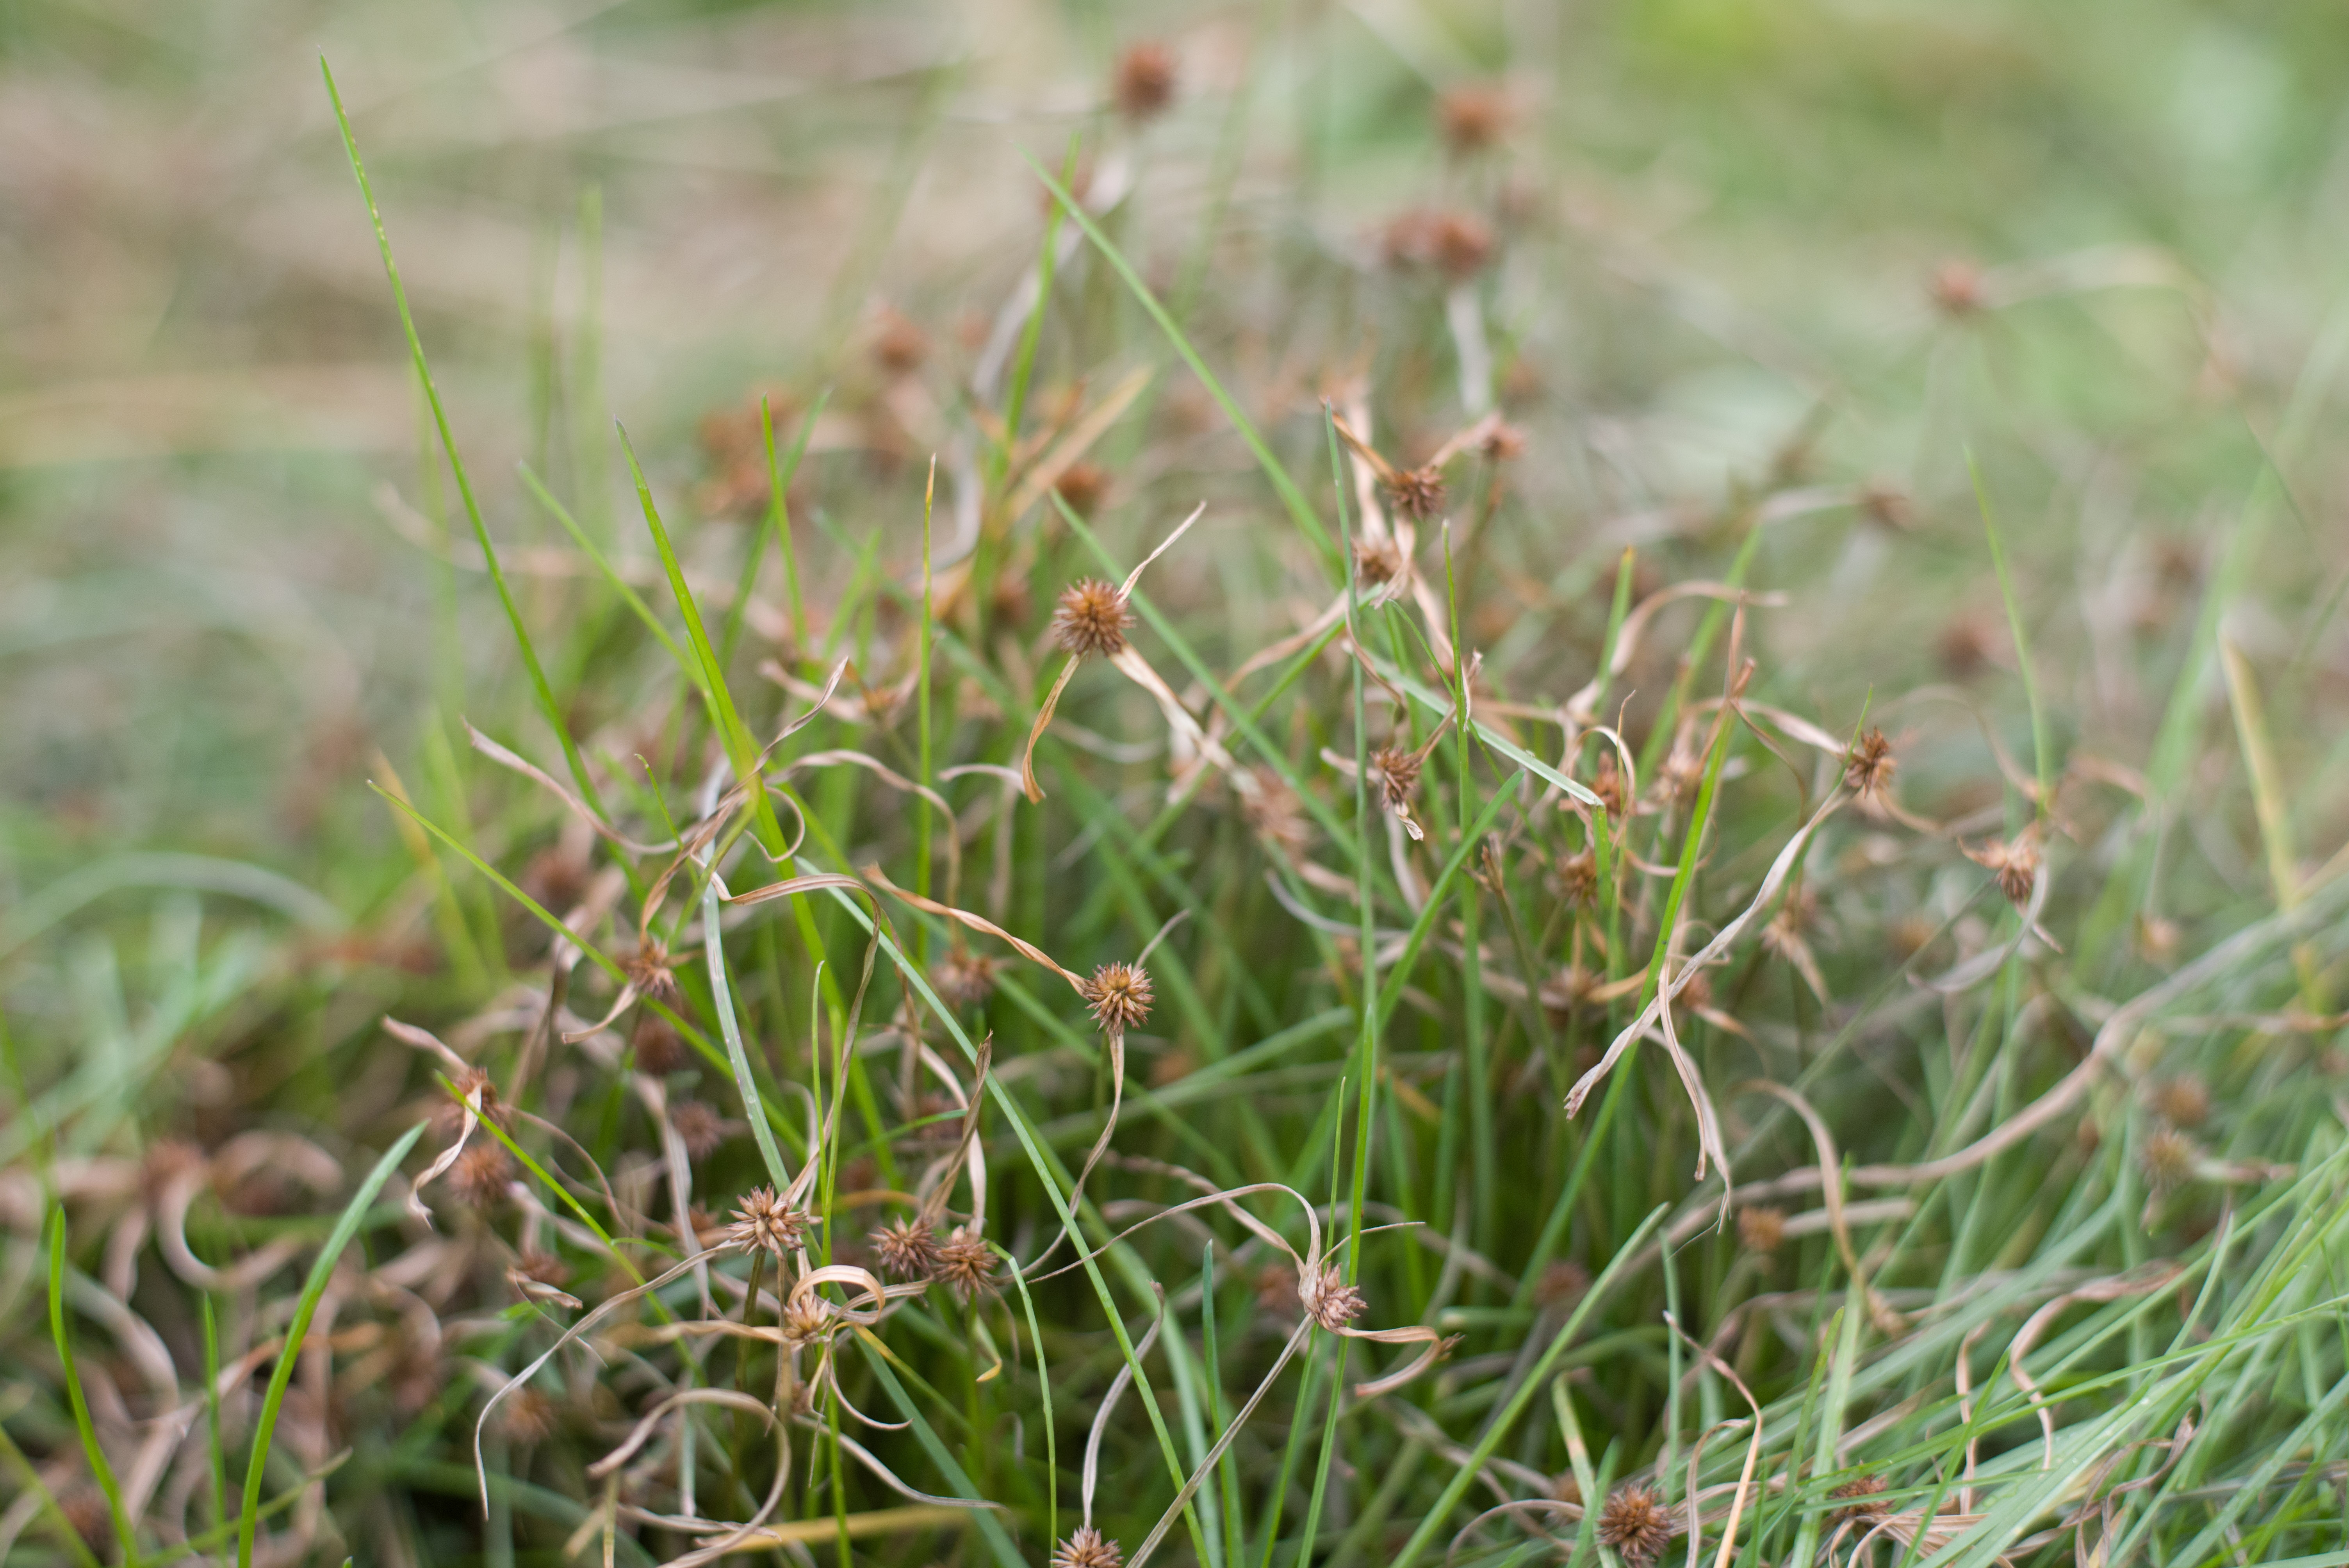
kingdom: Plantae
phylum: Tracheophyta
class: Liliopsida
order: Poales
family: Cyperaceae
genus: Cyperus
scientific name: Cyperus brevifolioides
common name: pasture spike sedge
